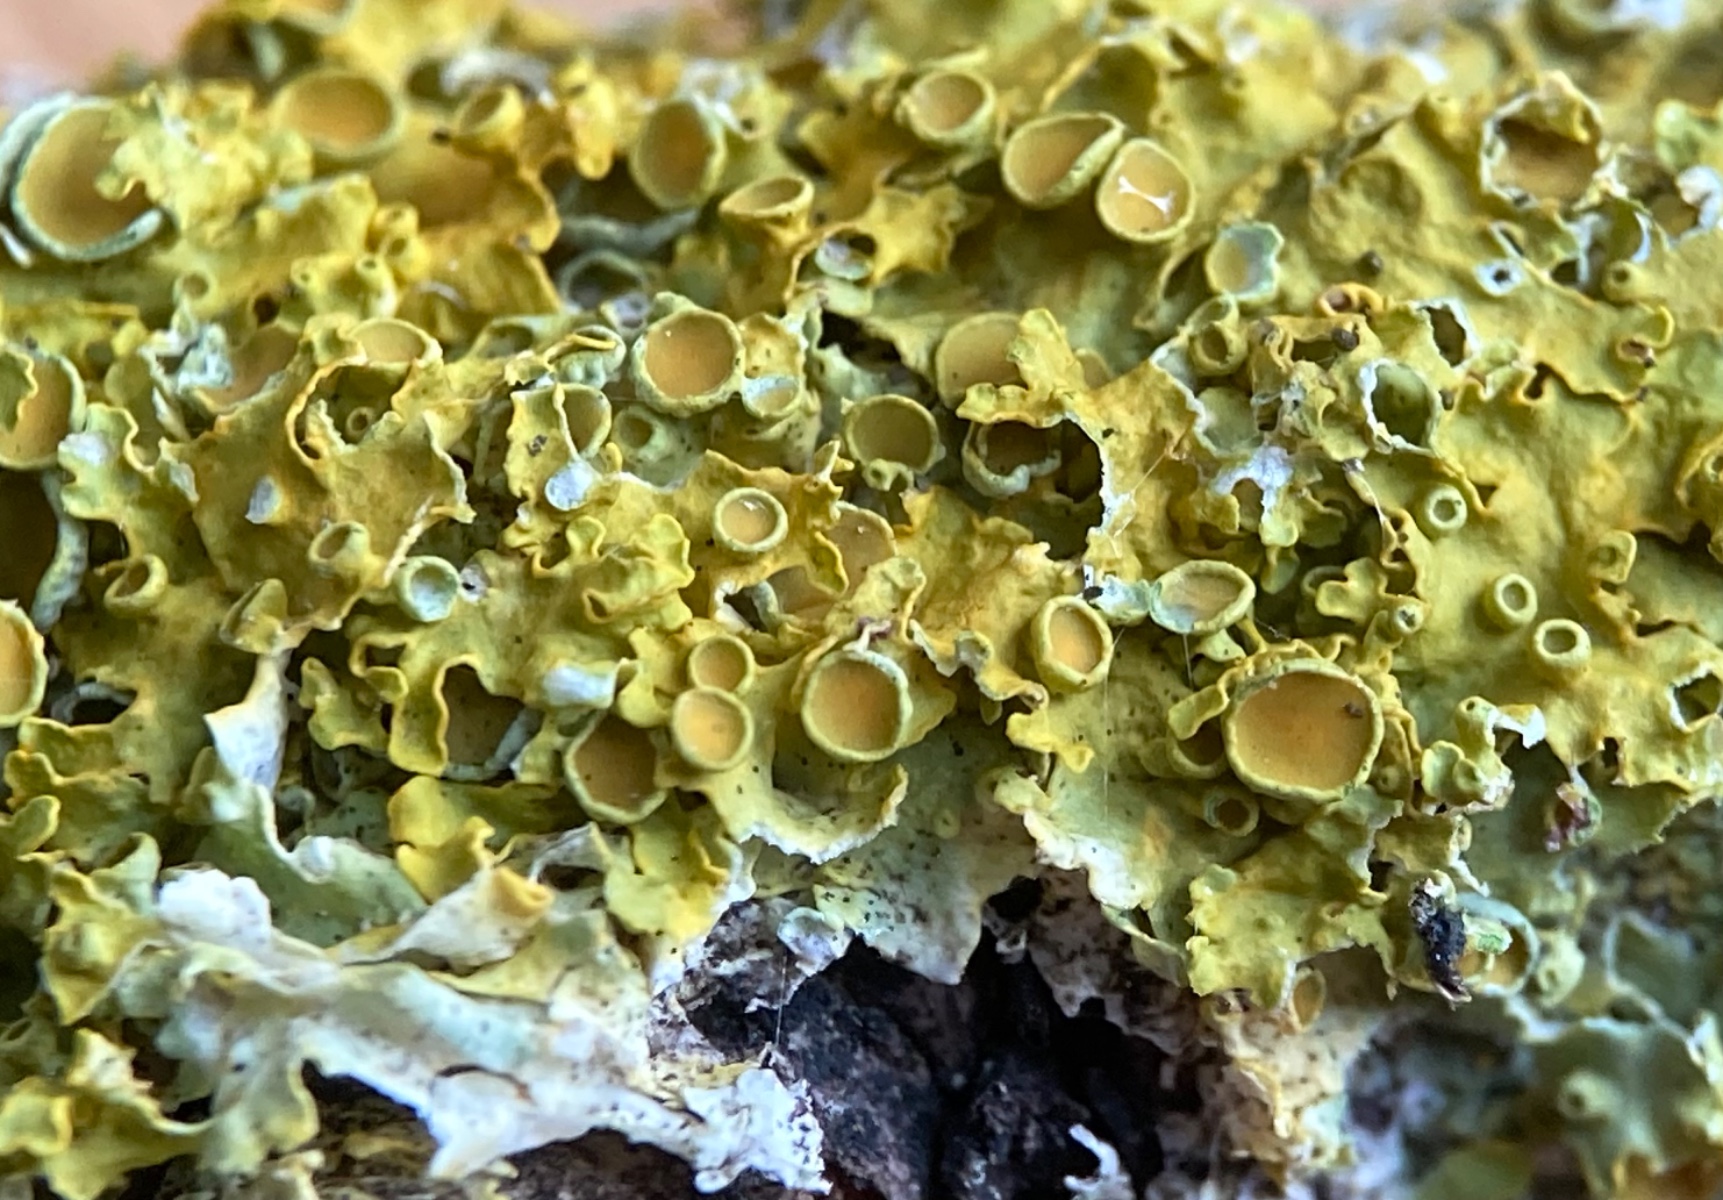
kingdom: Fungi
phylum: Ascomycota
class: Lecanoromycetes
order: Teloschistales
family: Teloschistaceae
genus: Xanthoria
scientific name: Xanthoria parietina
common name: almindelig væggelav
